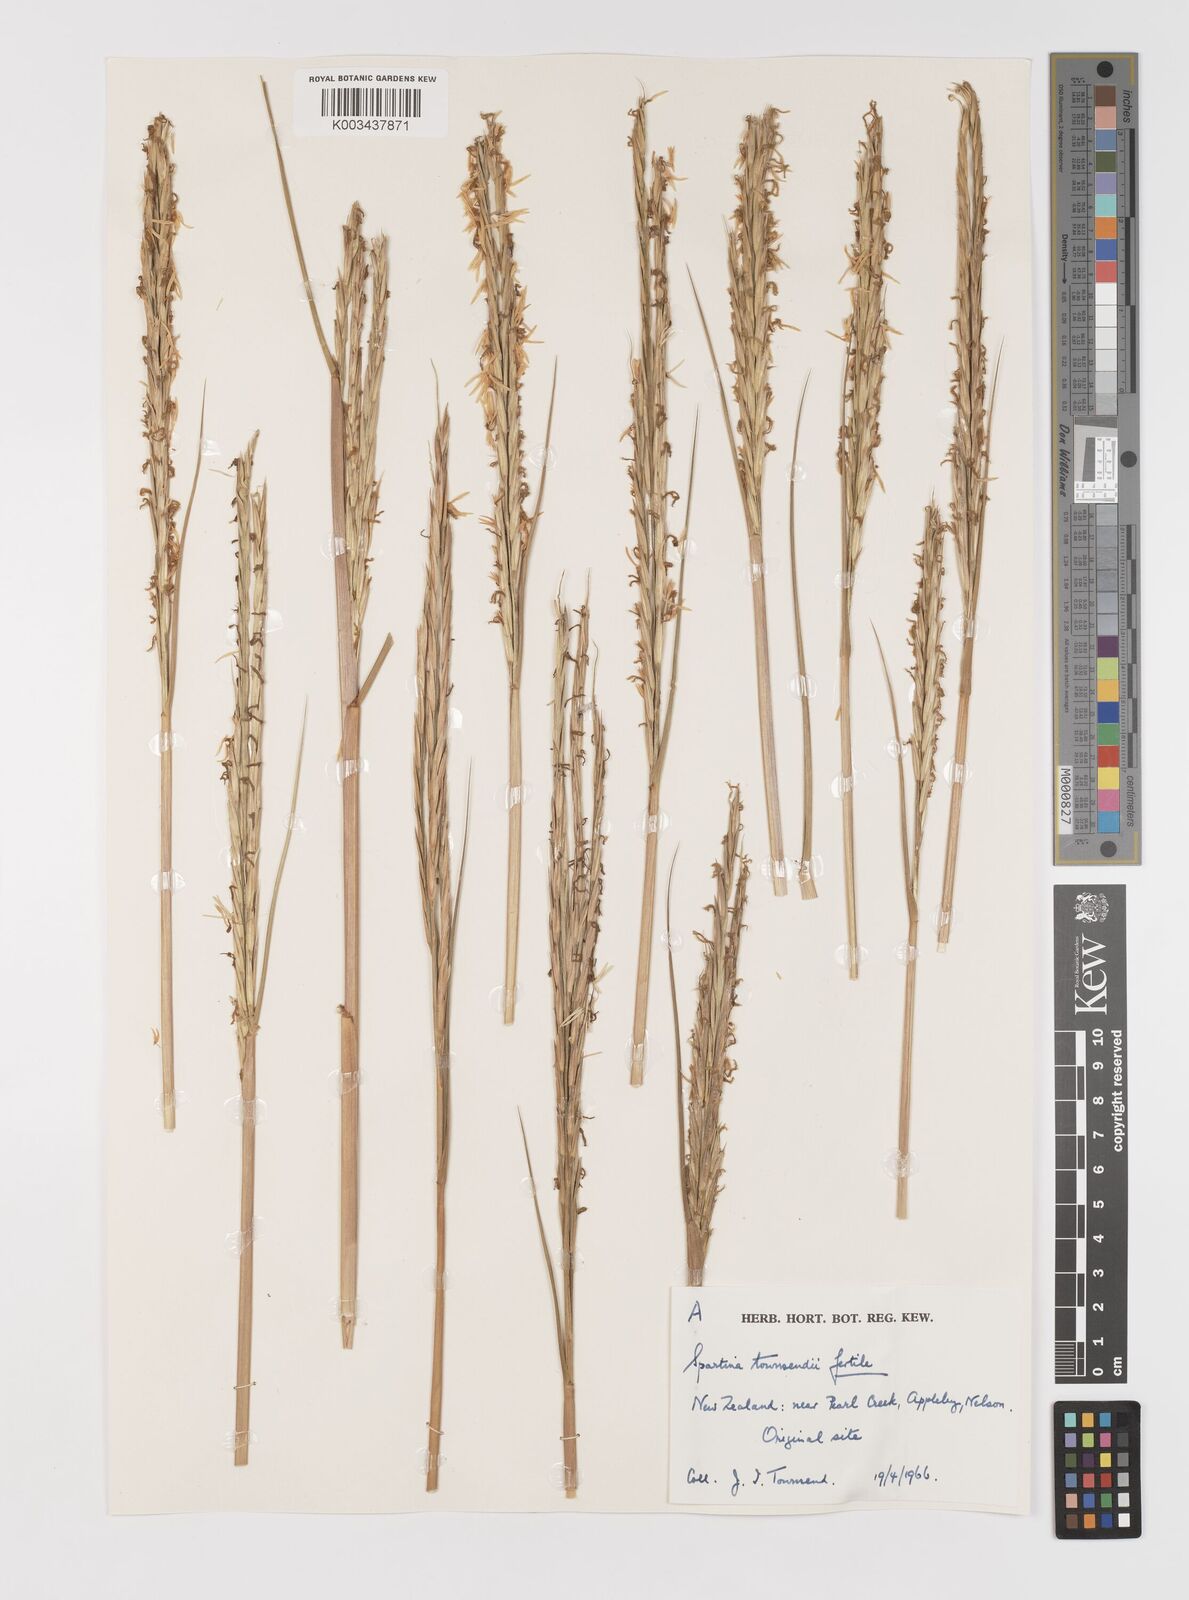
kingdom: Plantae
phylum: Tracheophyta
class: Liliopsida
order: Poales
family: Poaceae
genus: Sporobolus
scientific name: Sporobolus anglicus
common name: English cordgrass
